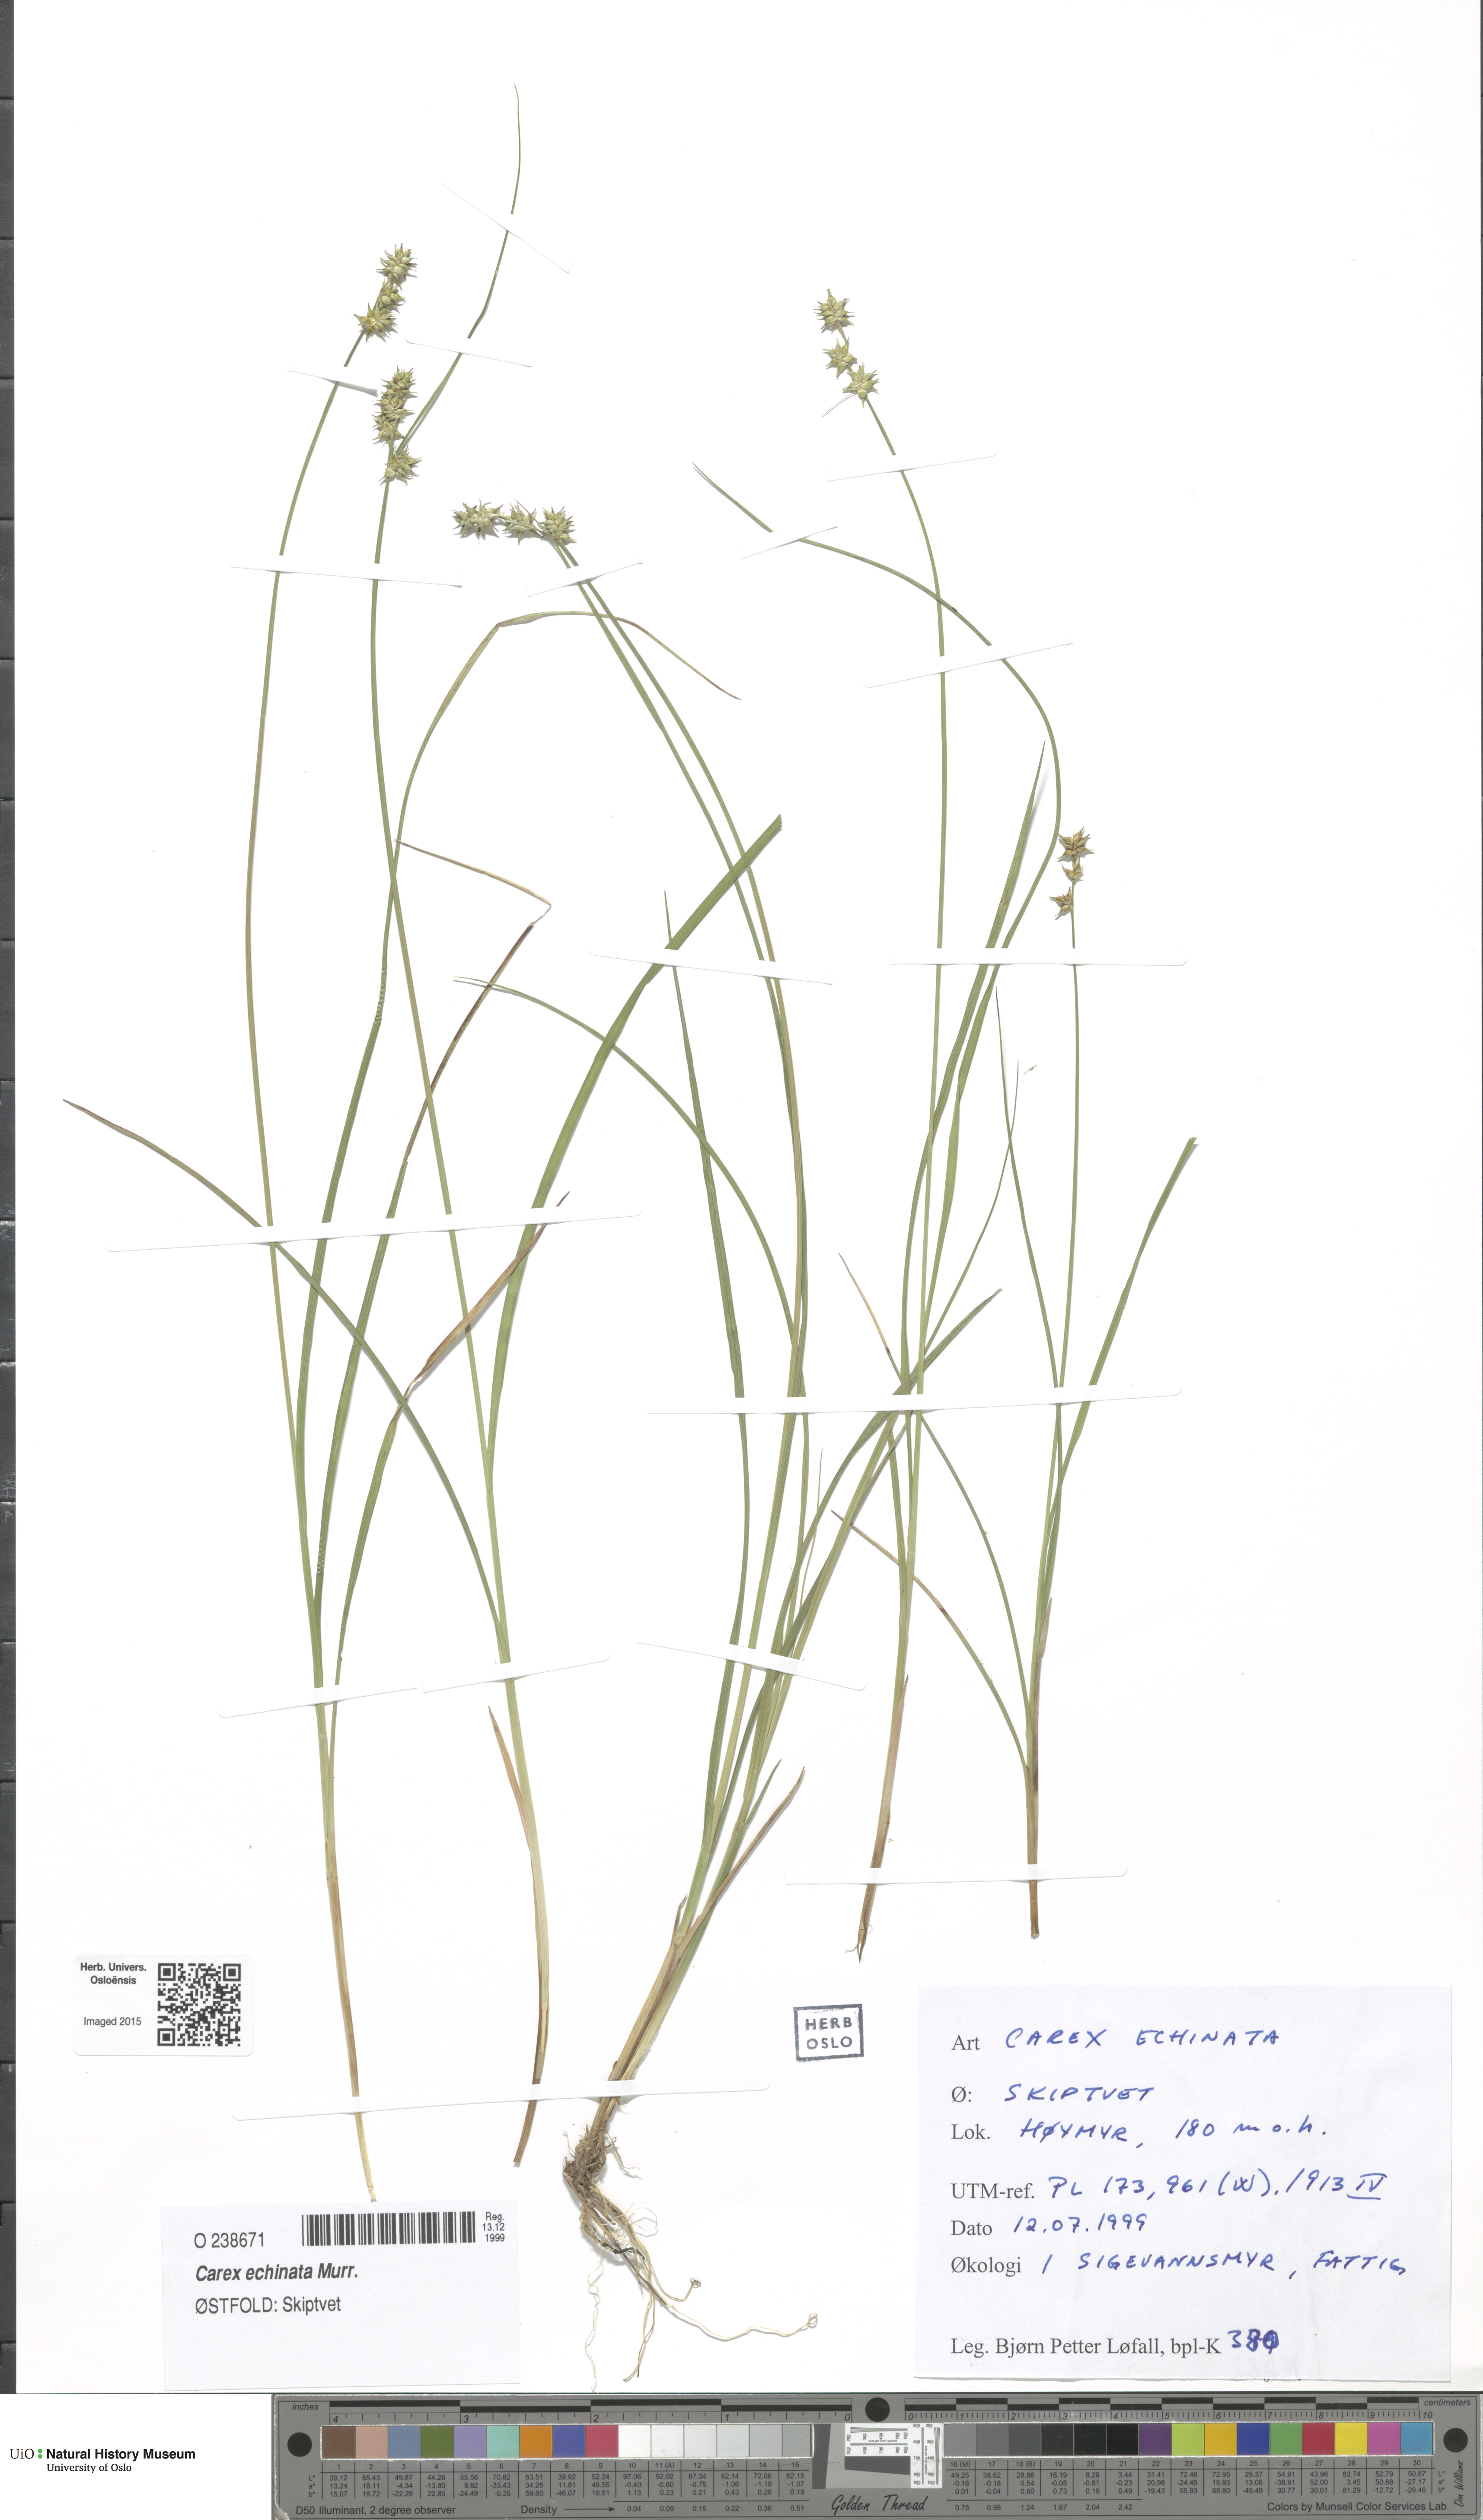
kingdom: Plantae
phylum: Tracheophyta
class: Liliopsida
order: Poales
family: Cyperaceae
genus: Carex
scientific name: Carex echinata
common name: Star sedge
